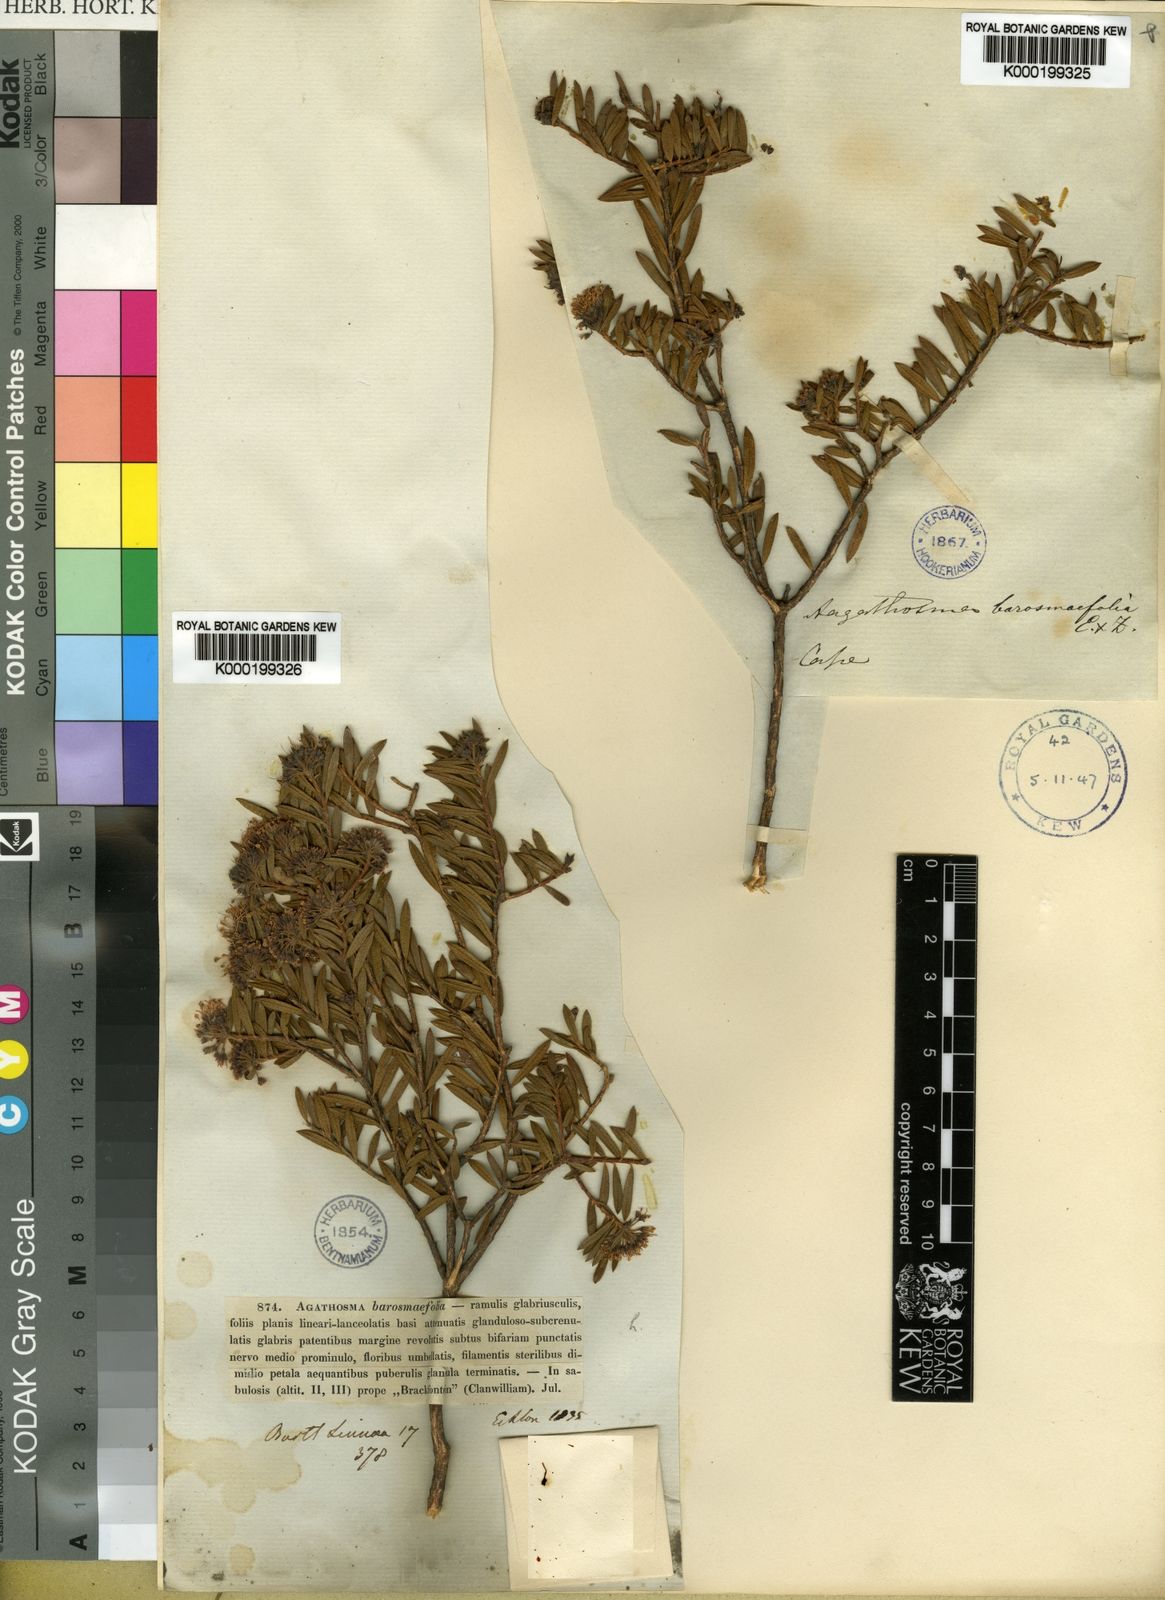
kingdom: Plantae
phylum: Tracheophyta
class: Magnoliopsida
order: Sapindales
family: Rutaceae
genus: Agathosma
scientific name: Agathosma bisulca
